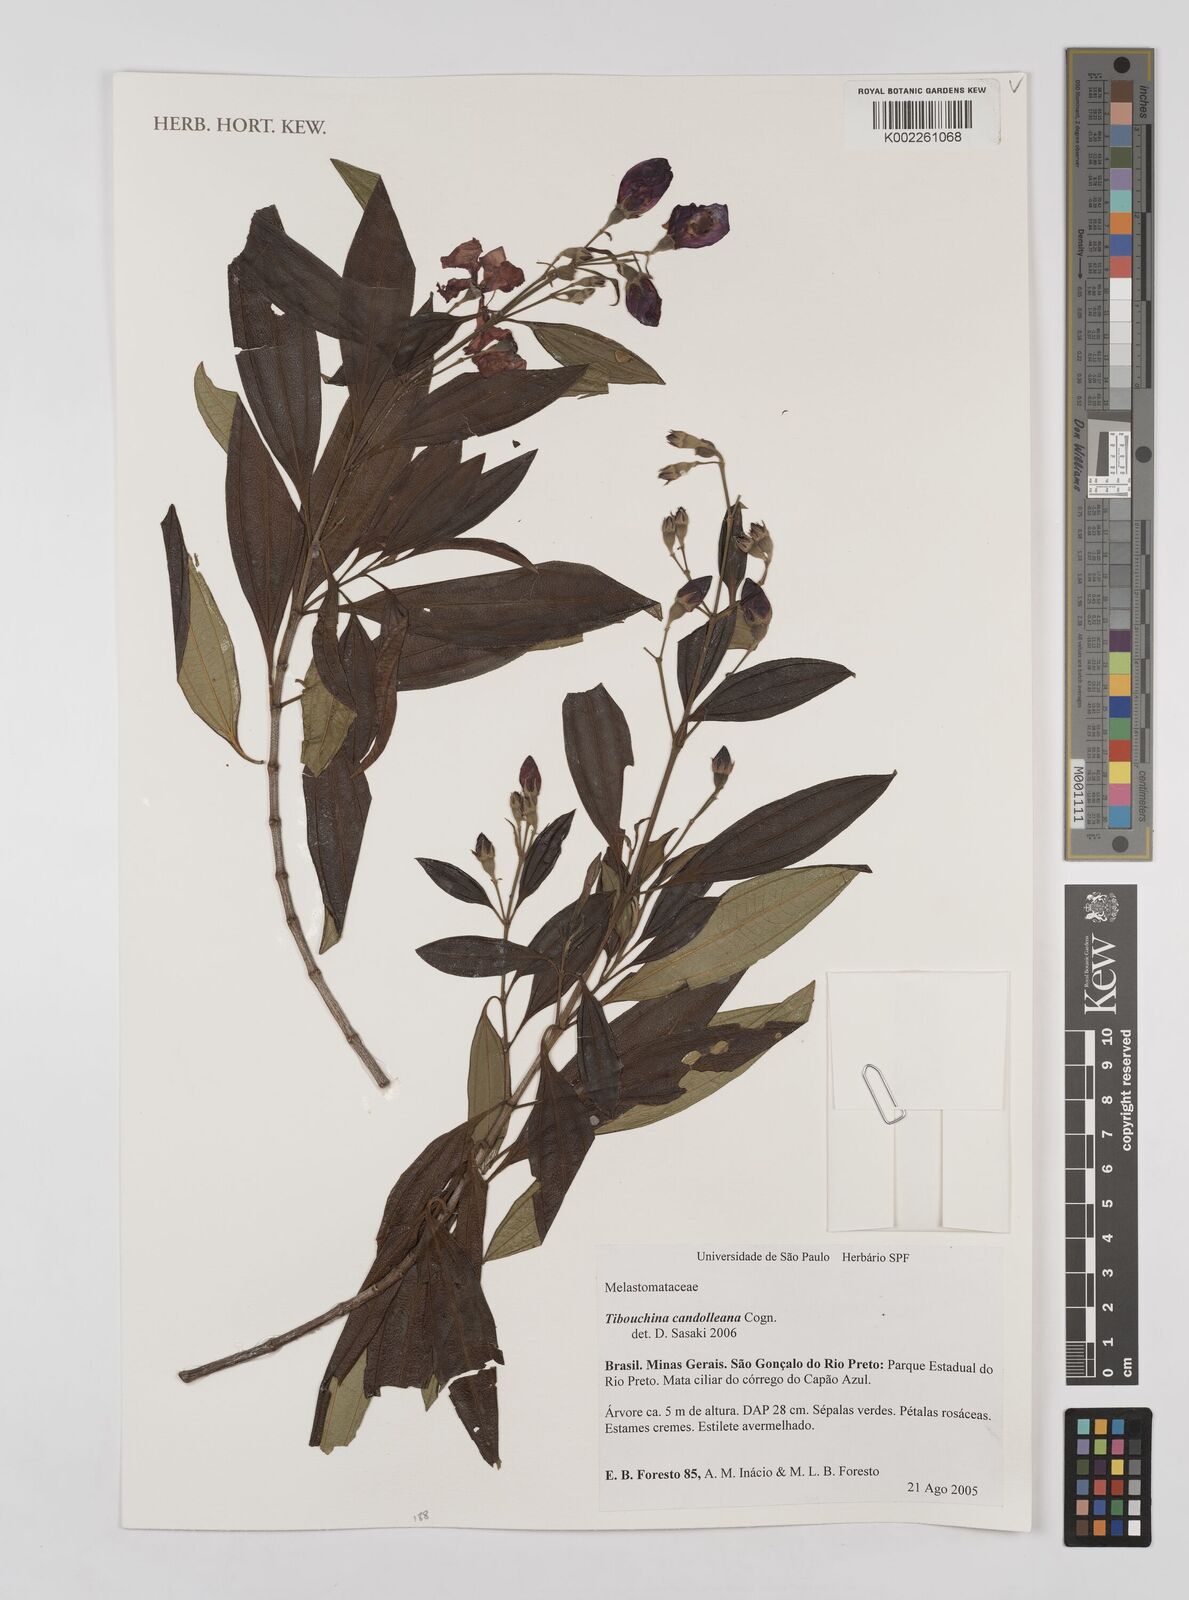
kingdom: Plantae
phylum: Tracheophyta
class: Magnoliopsida
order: Myrtales
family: Melastomataceae
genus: Pleroma
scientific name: Pleroma candolleanum
